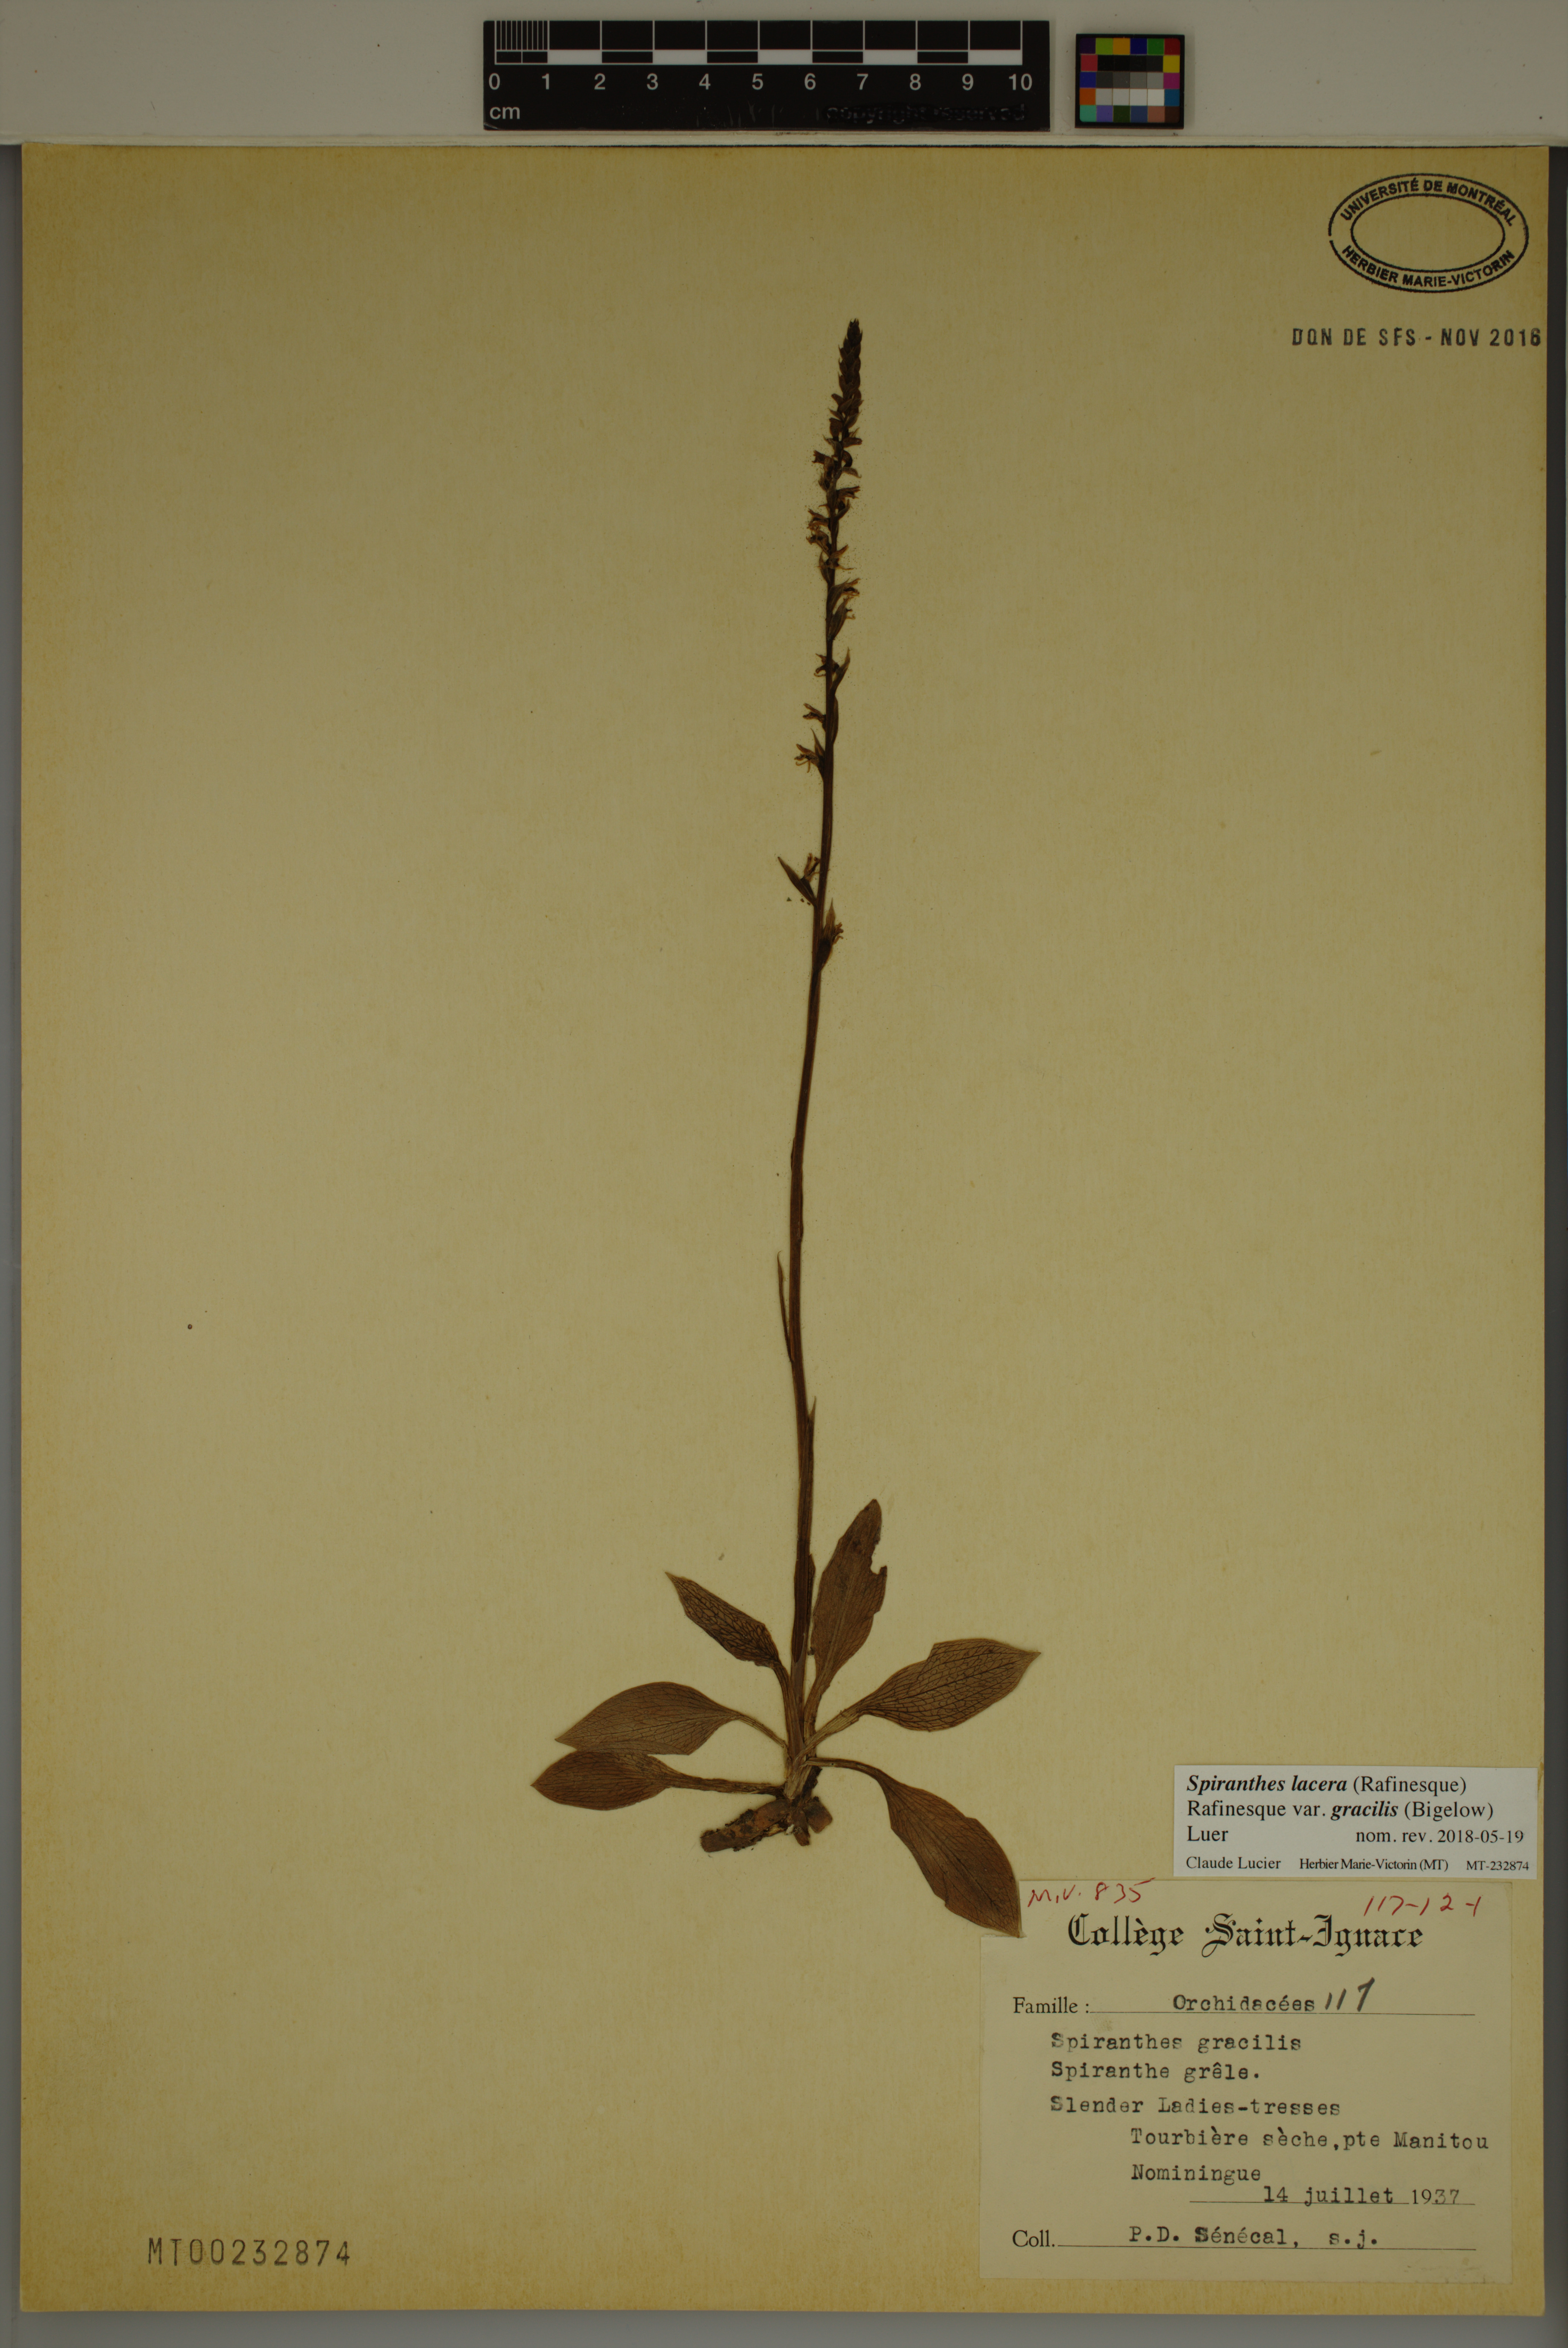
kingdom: Plantae
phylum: Tracheophyta
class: Liliopsida
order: Asparagales
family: Orchidaceae
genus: Spiranthes
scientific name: Spiranthes lacera
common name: Northern slender ladies'-tresses
